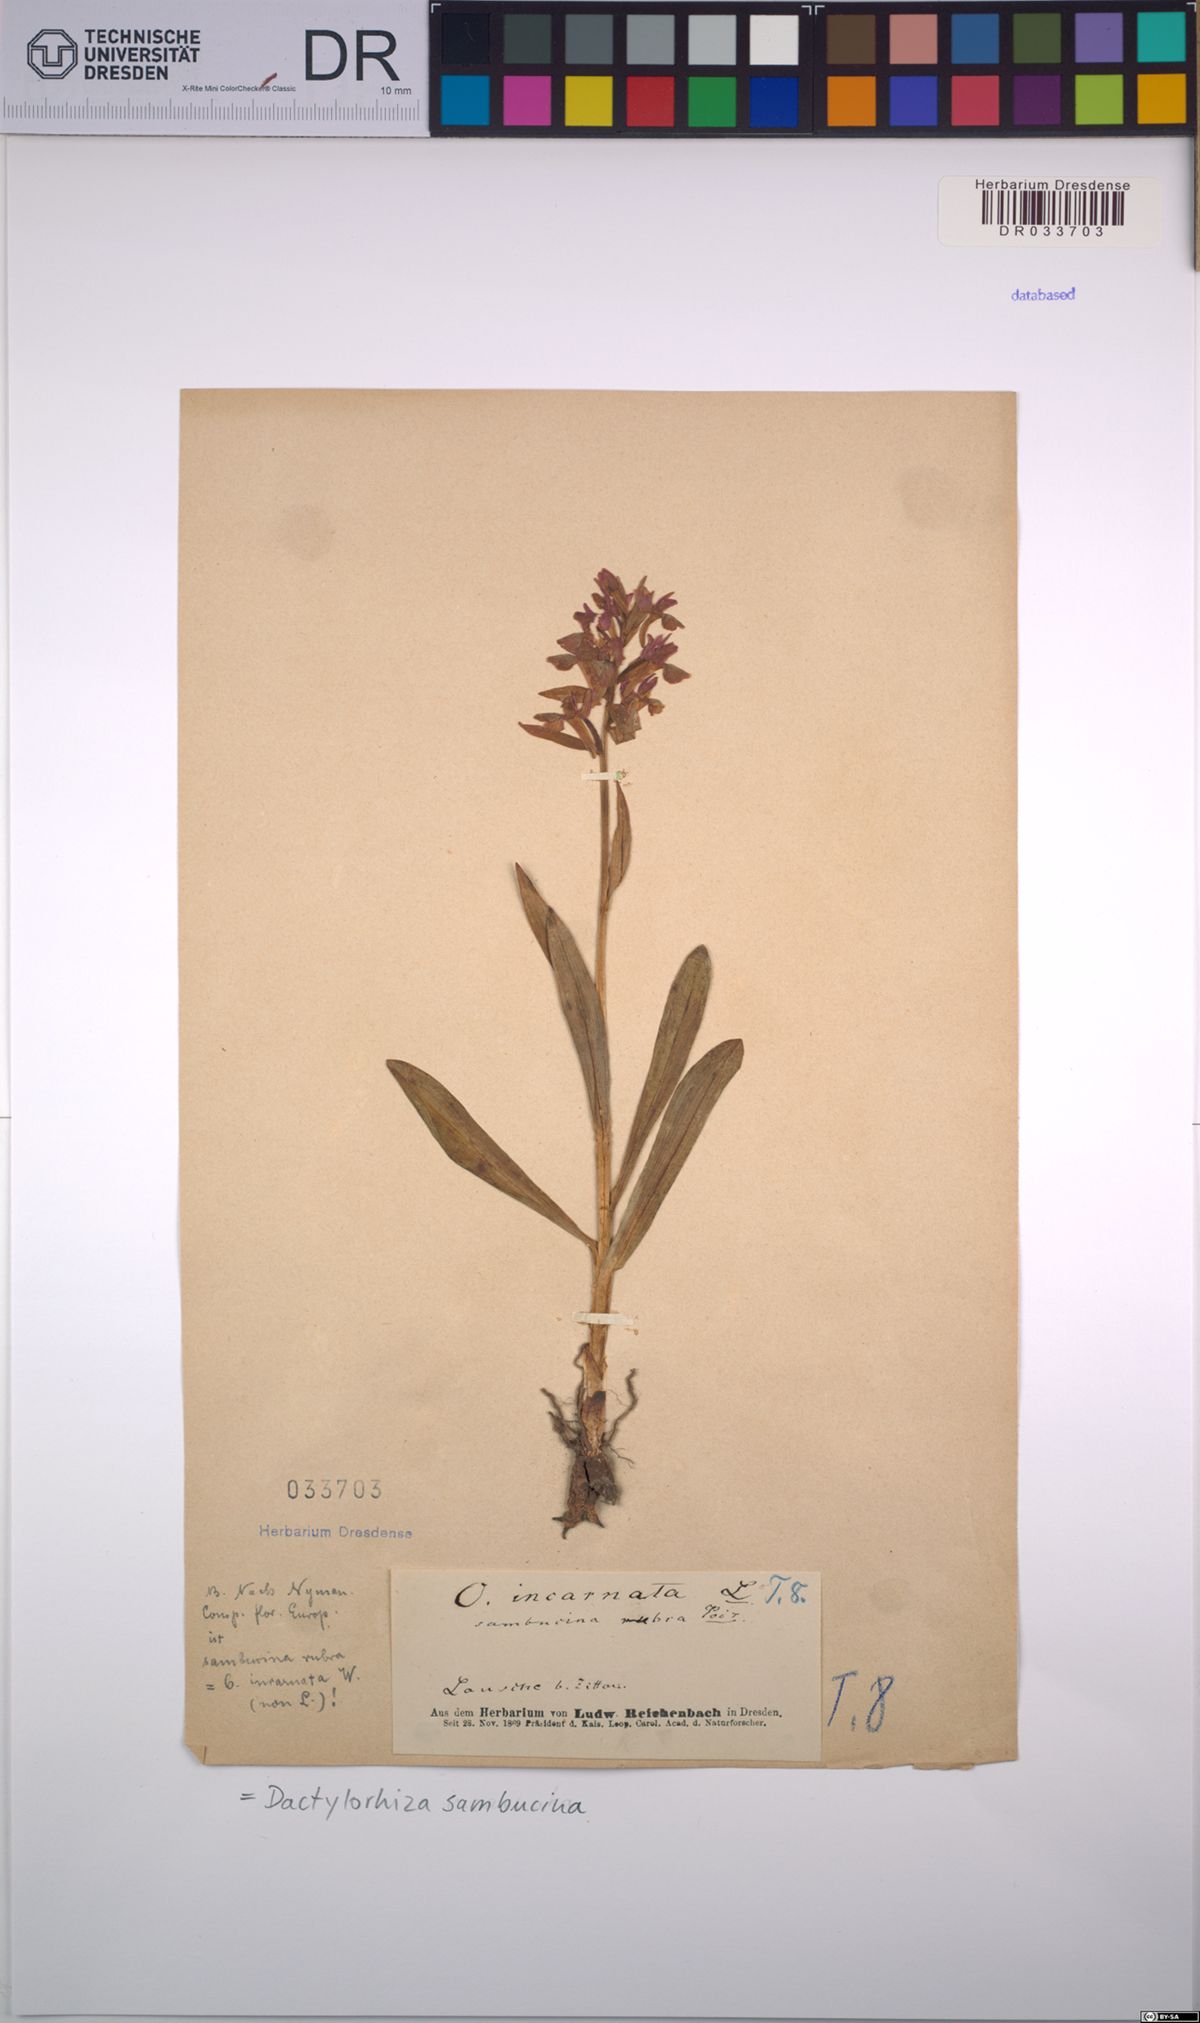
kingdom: Plantae
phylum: Tracheophyta
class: Liliopsida
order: Asparagales
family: Orchidaceae
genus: Dactylorhiza
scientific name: Dactylorhiza sambucina
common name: Elder-flowered orchid
